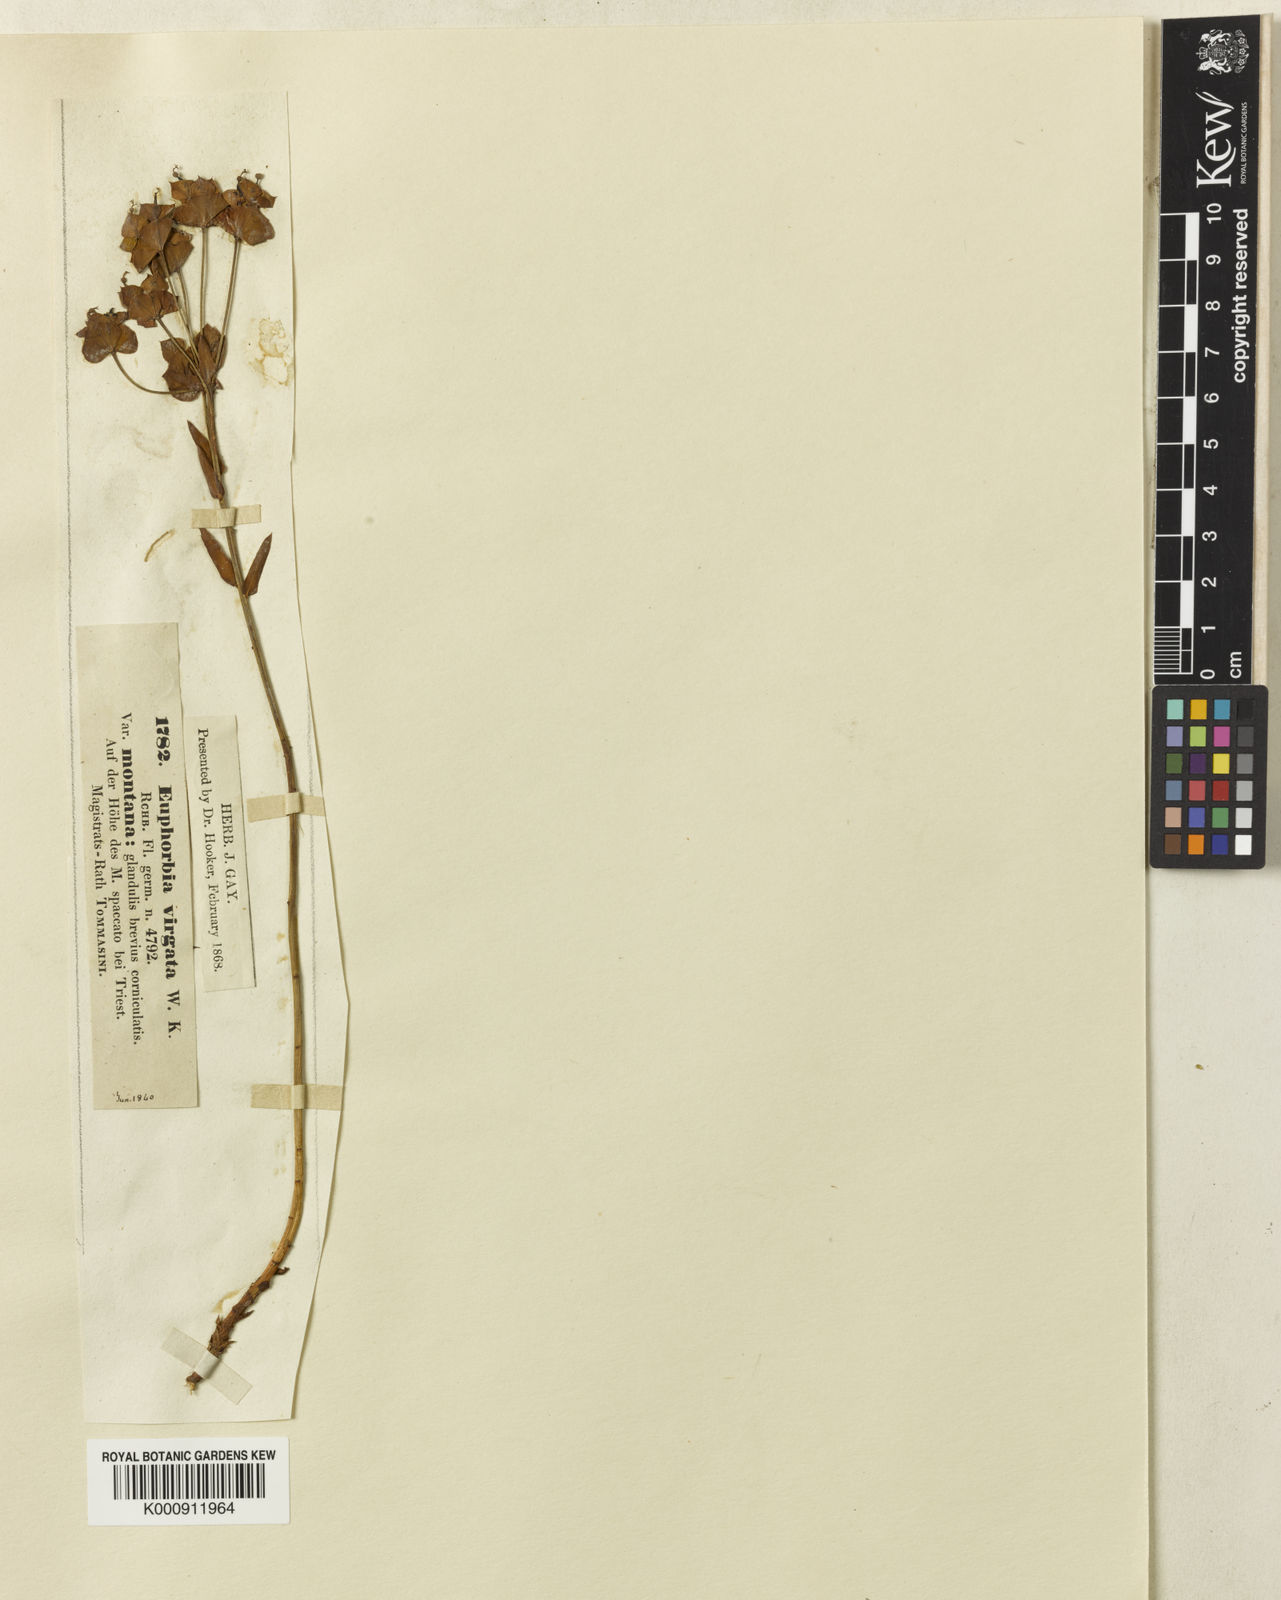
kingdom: Plantae
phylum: Tracheophyta
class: Magnoliopsida
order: Malpighiales
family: Euphorbiaceae
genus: Euphorbia
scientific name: Euphorbia tommasiniana
